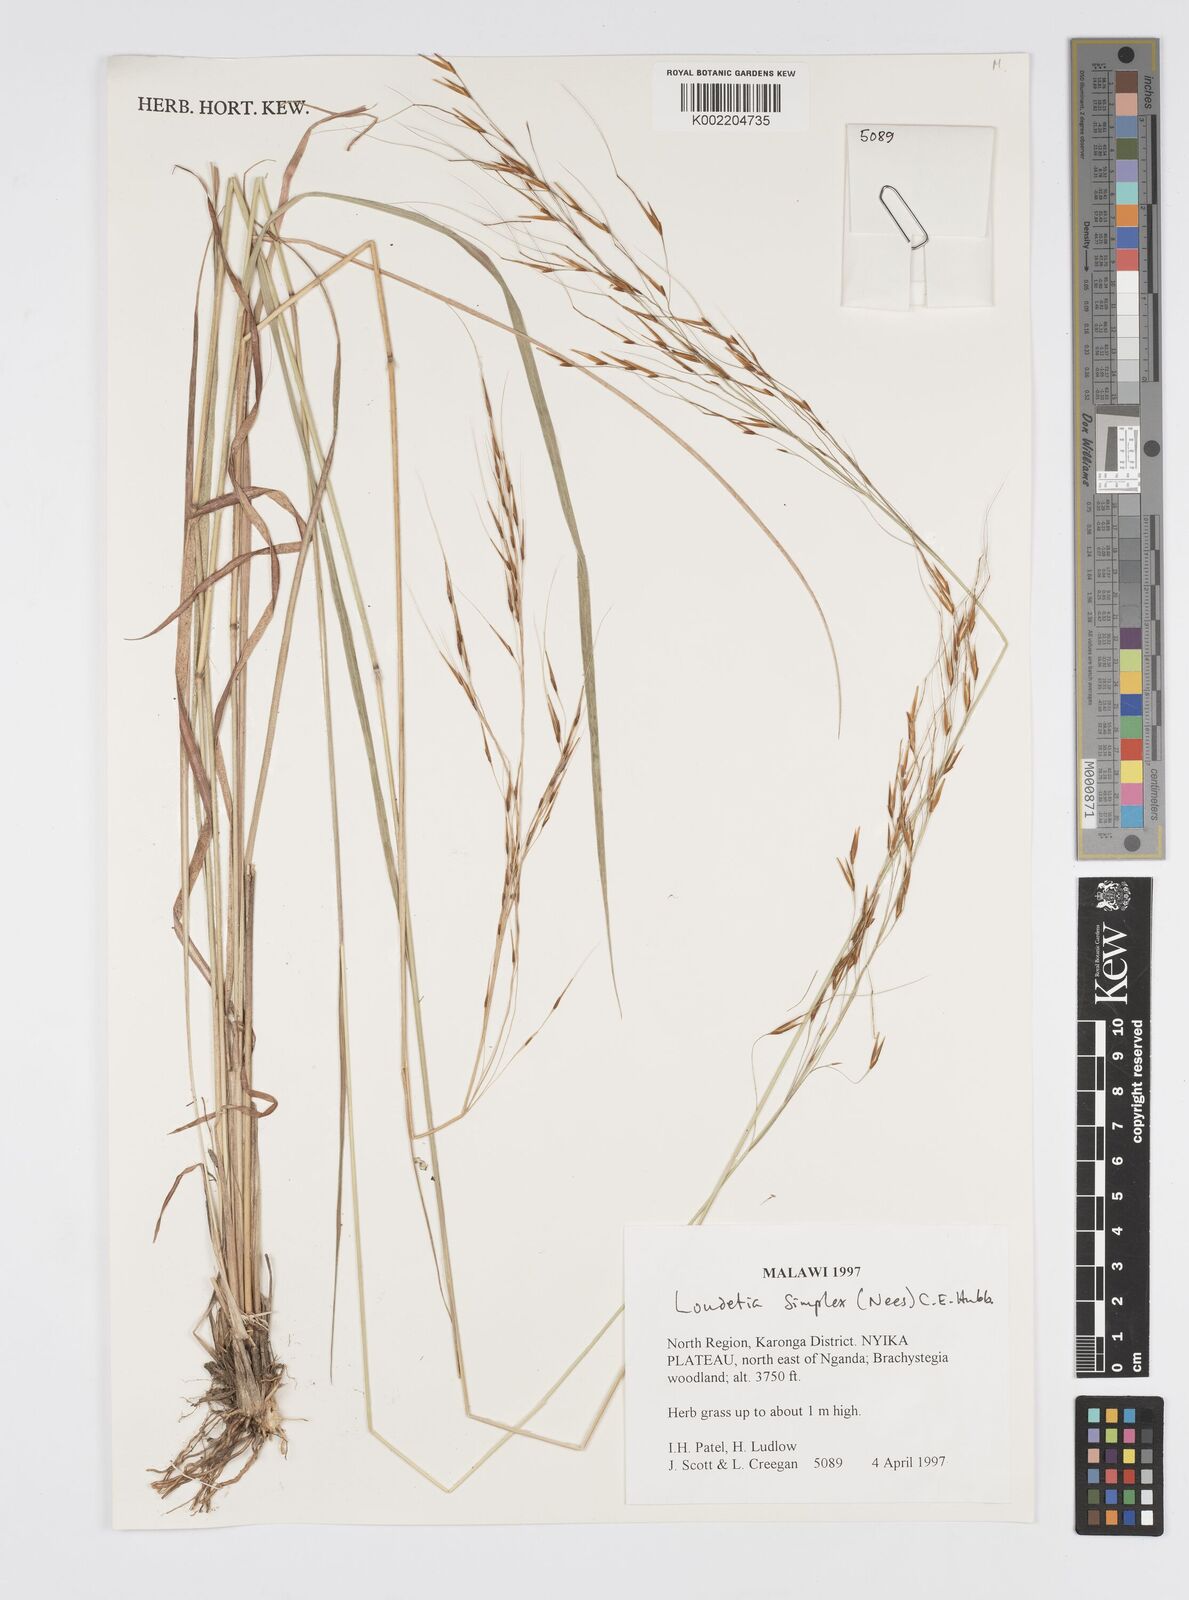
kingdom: Plantae
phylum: Tracheophyta
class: Liliopsida
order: Poales
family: Poaceae
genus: Loudetia
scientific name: Loudetia simplex
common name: Common russet grass
